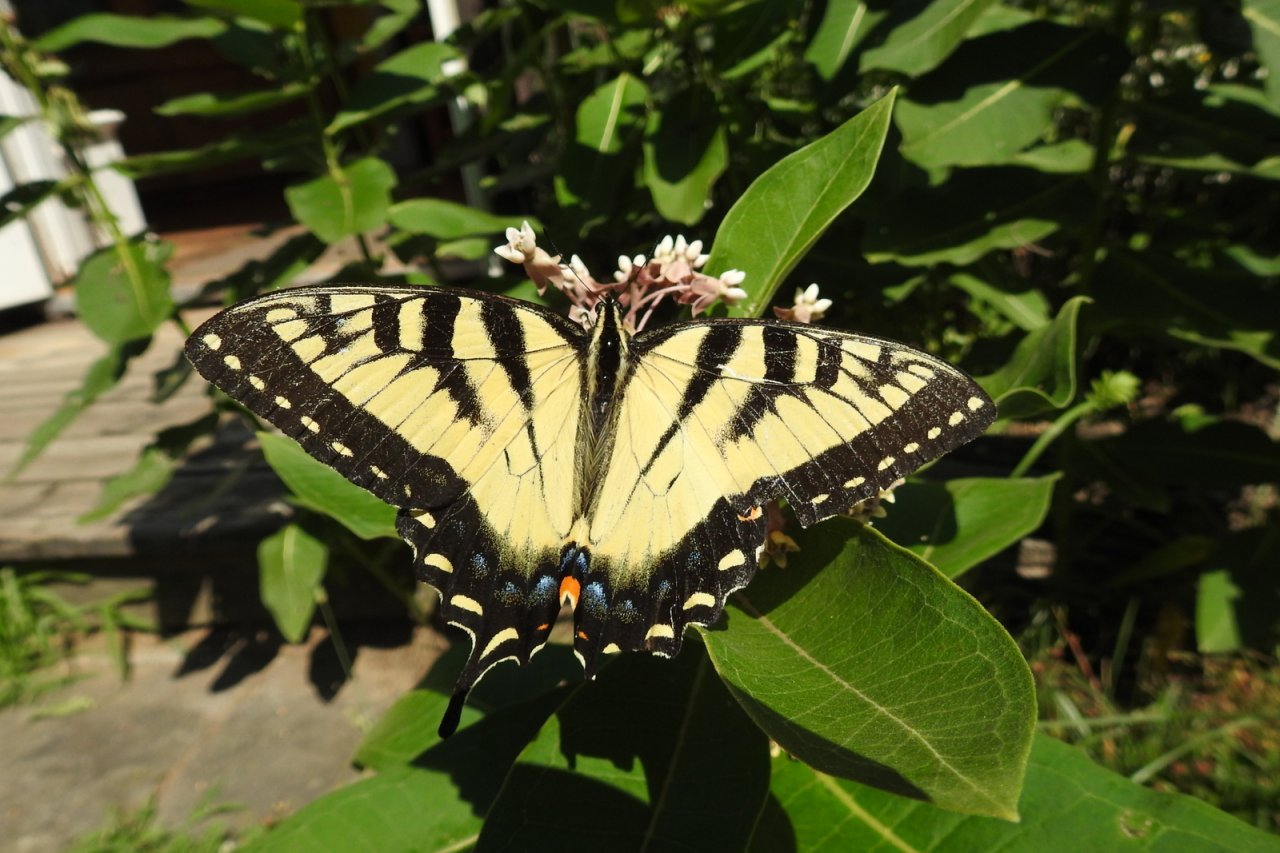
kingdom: Animalia
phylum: Arthropoda
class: Insecta
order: Lepidoptera
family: Papilionidae
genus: Pterourus
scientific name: Pterourus glaucus
